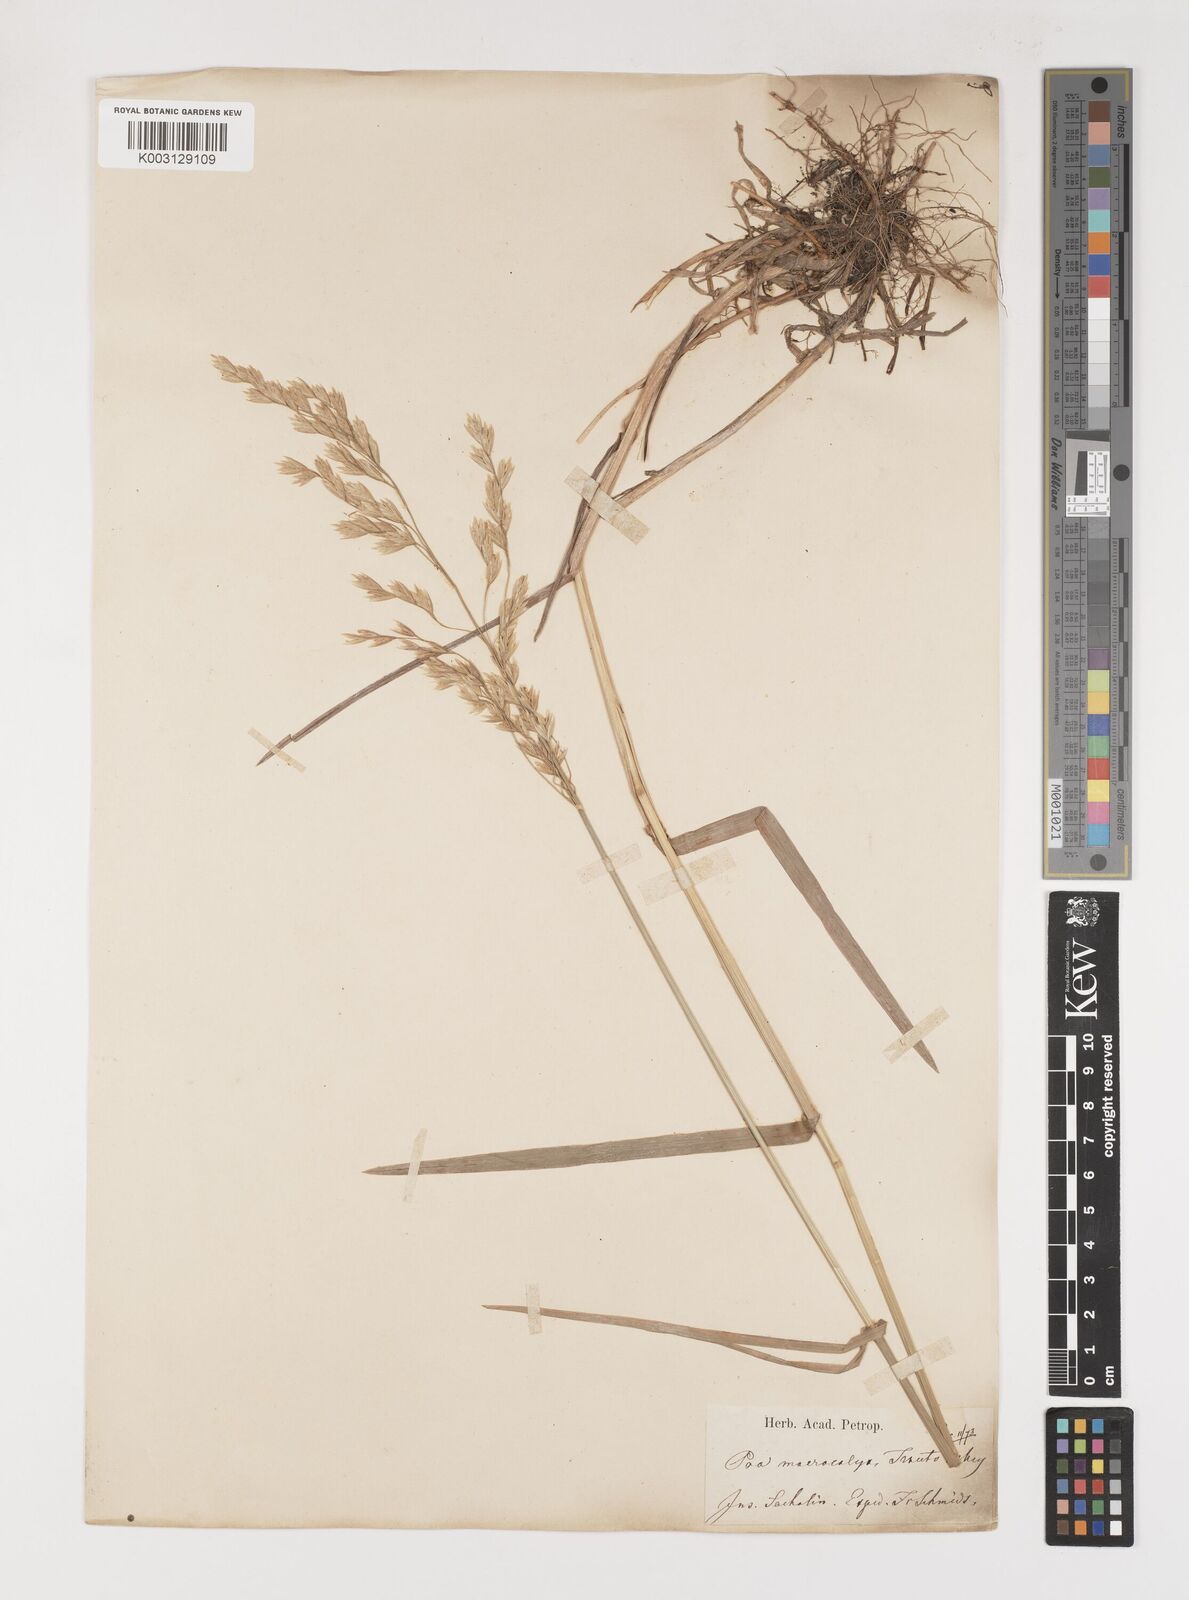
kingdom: Plantae
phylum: Tracheophyta
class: Liliopsida
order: Poales
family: Poaceae
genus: Poa
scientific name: Poa macrocalyx
